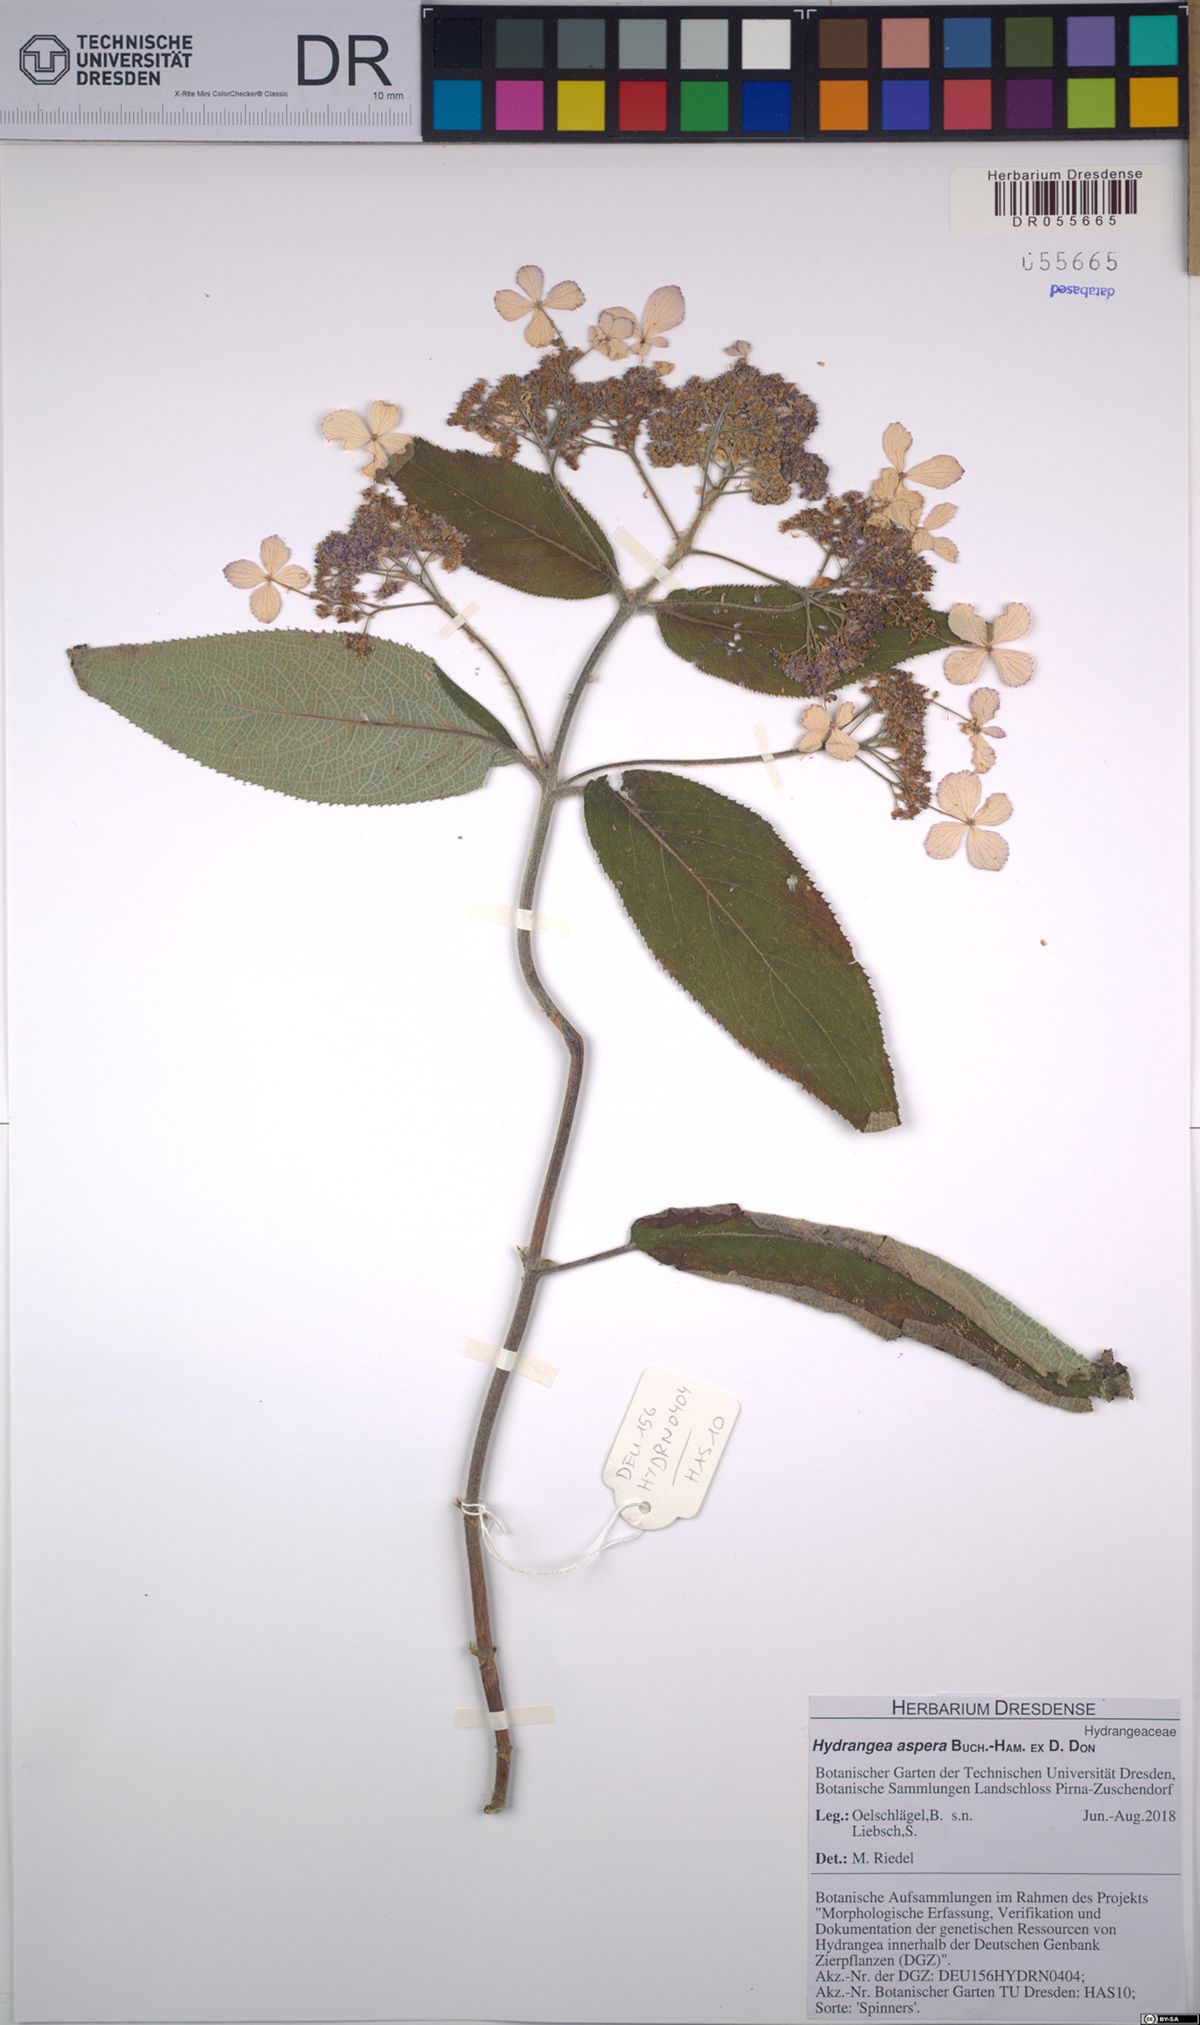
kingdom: Plantae
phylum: Tracheophyta
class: Magnoliopsida
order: Cornales
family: Hydrangeaceae
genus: Hydrangea
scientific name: Hydrangea aspera
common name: Rough-leaf hydrangea
